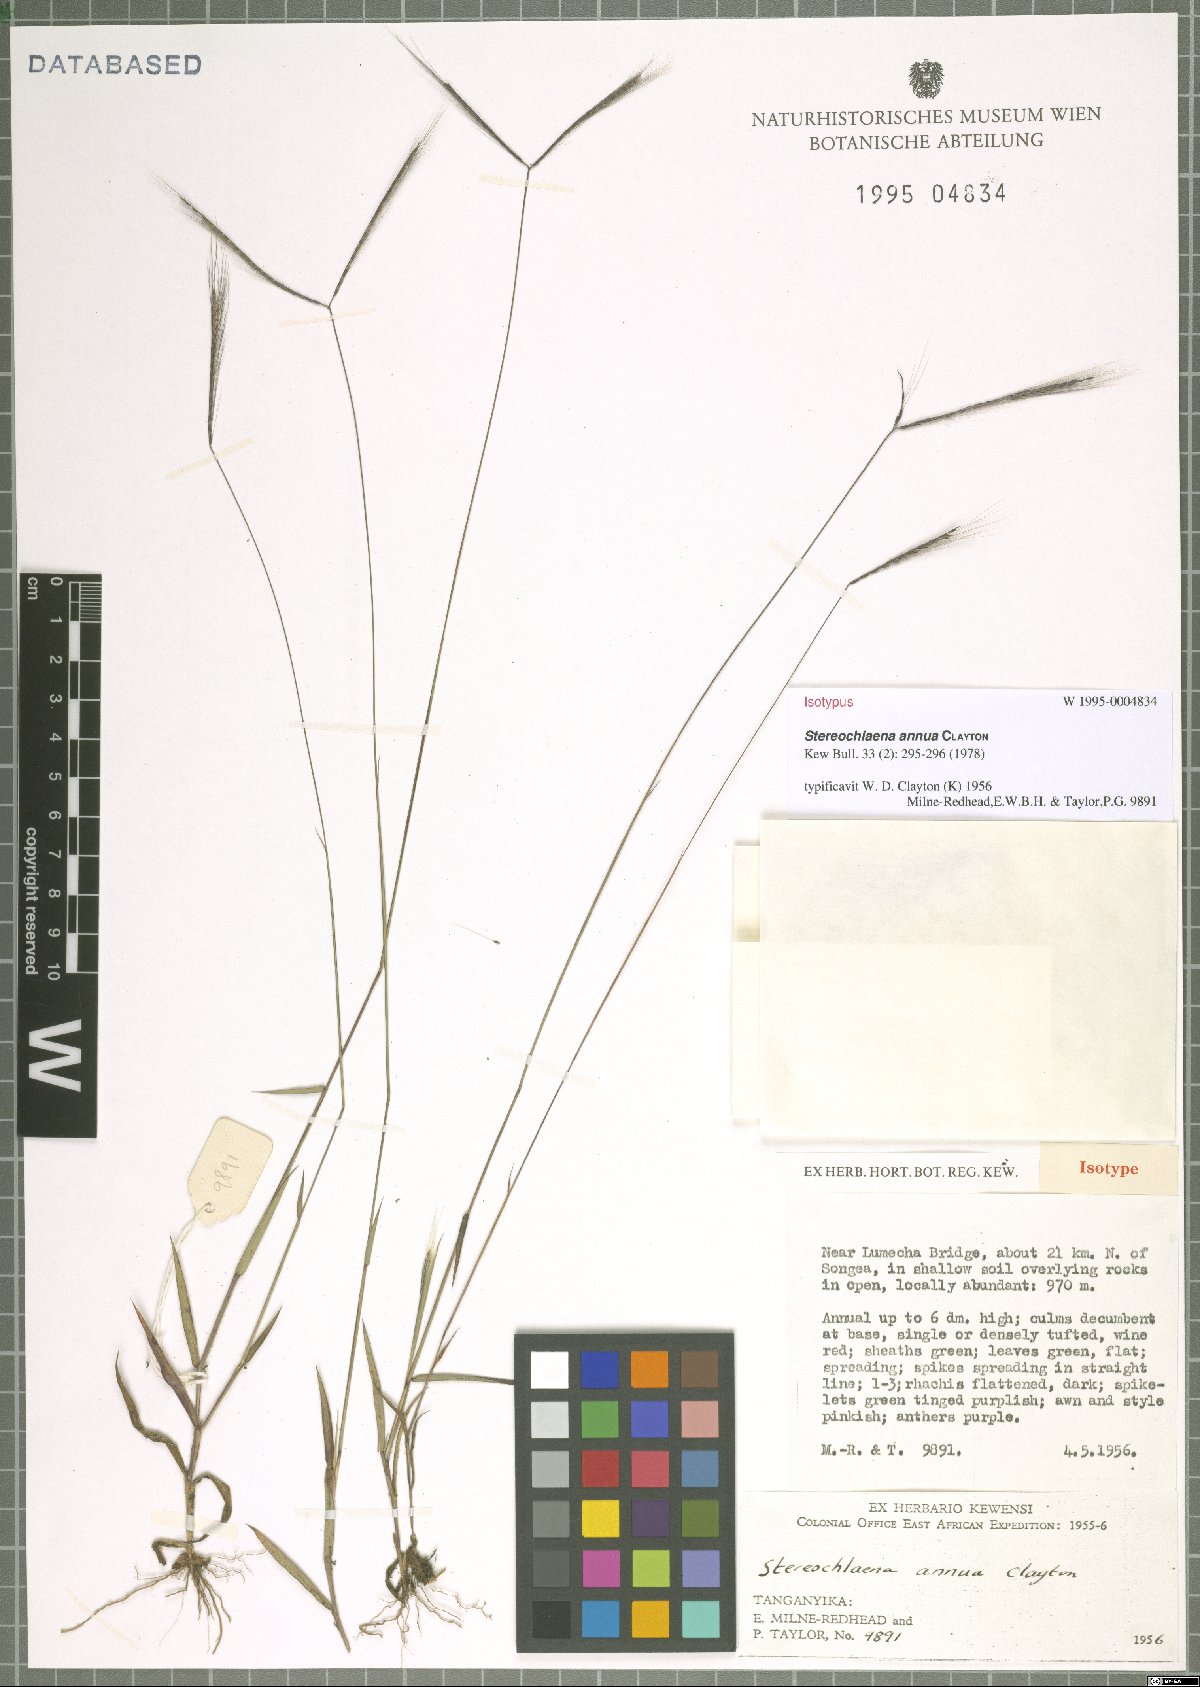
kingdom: Plantae
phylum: Tracheophyta
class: Liliopsida
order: Poales
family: Poaceae
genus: Stereochlaena
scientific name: Stereochlaena annua
